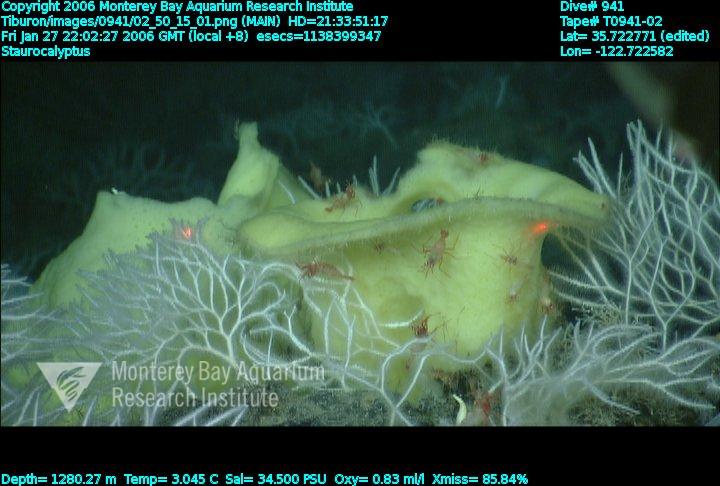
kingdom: Animalia
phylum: Porifera
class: Hexactinellida
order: Lyssacinosida
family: Rossellidae
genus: Staurocalyptus
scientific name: Staurocalyptus
